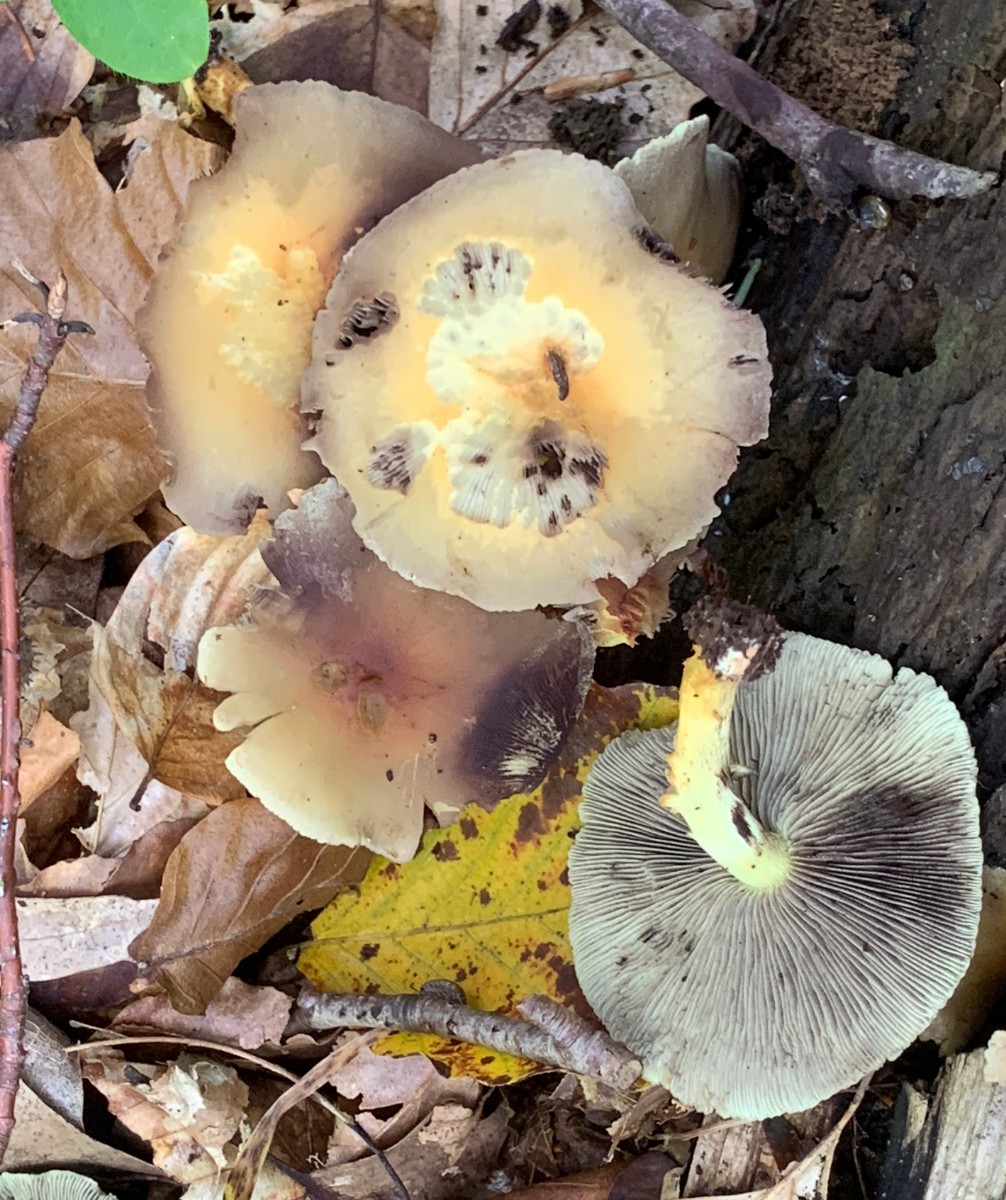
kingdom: Fungi
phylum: Basidiomycota
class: Agaricomycetes
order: Agaricales
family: Strophariaceae
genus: Hypholoma
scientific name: Hypholoma fasciculare
